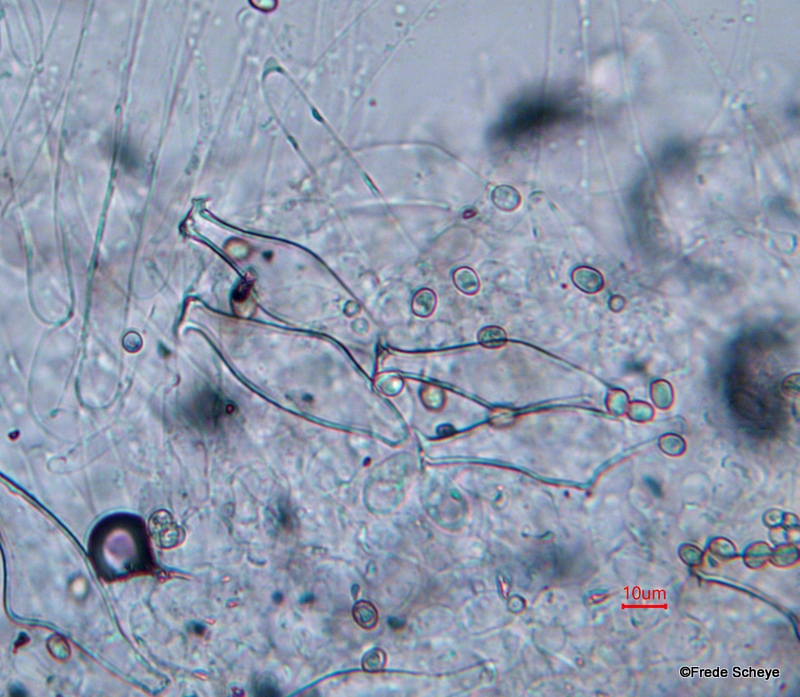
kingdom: Fungi
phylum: Basidiomycota
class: Agaricomycetes
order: Agaricales
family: Pluteaceae
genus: Pluteus
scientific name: Pluteus cervinus
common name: sodfarvet skærmhat
